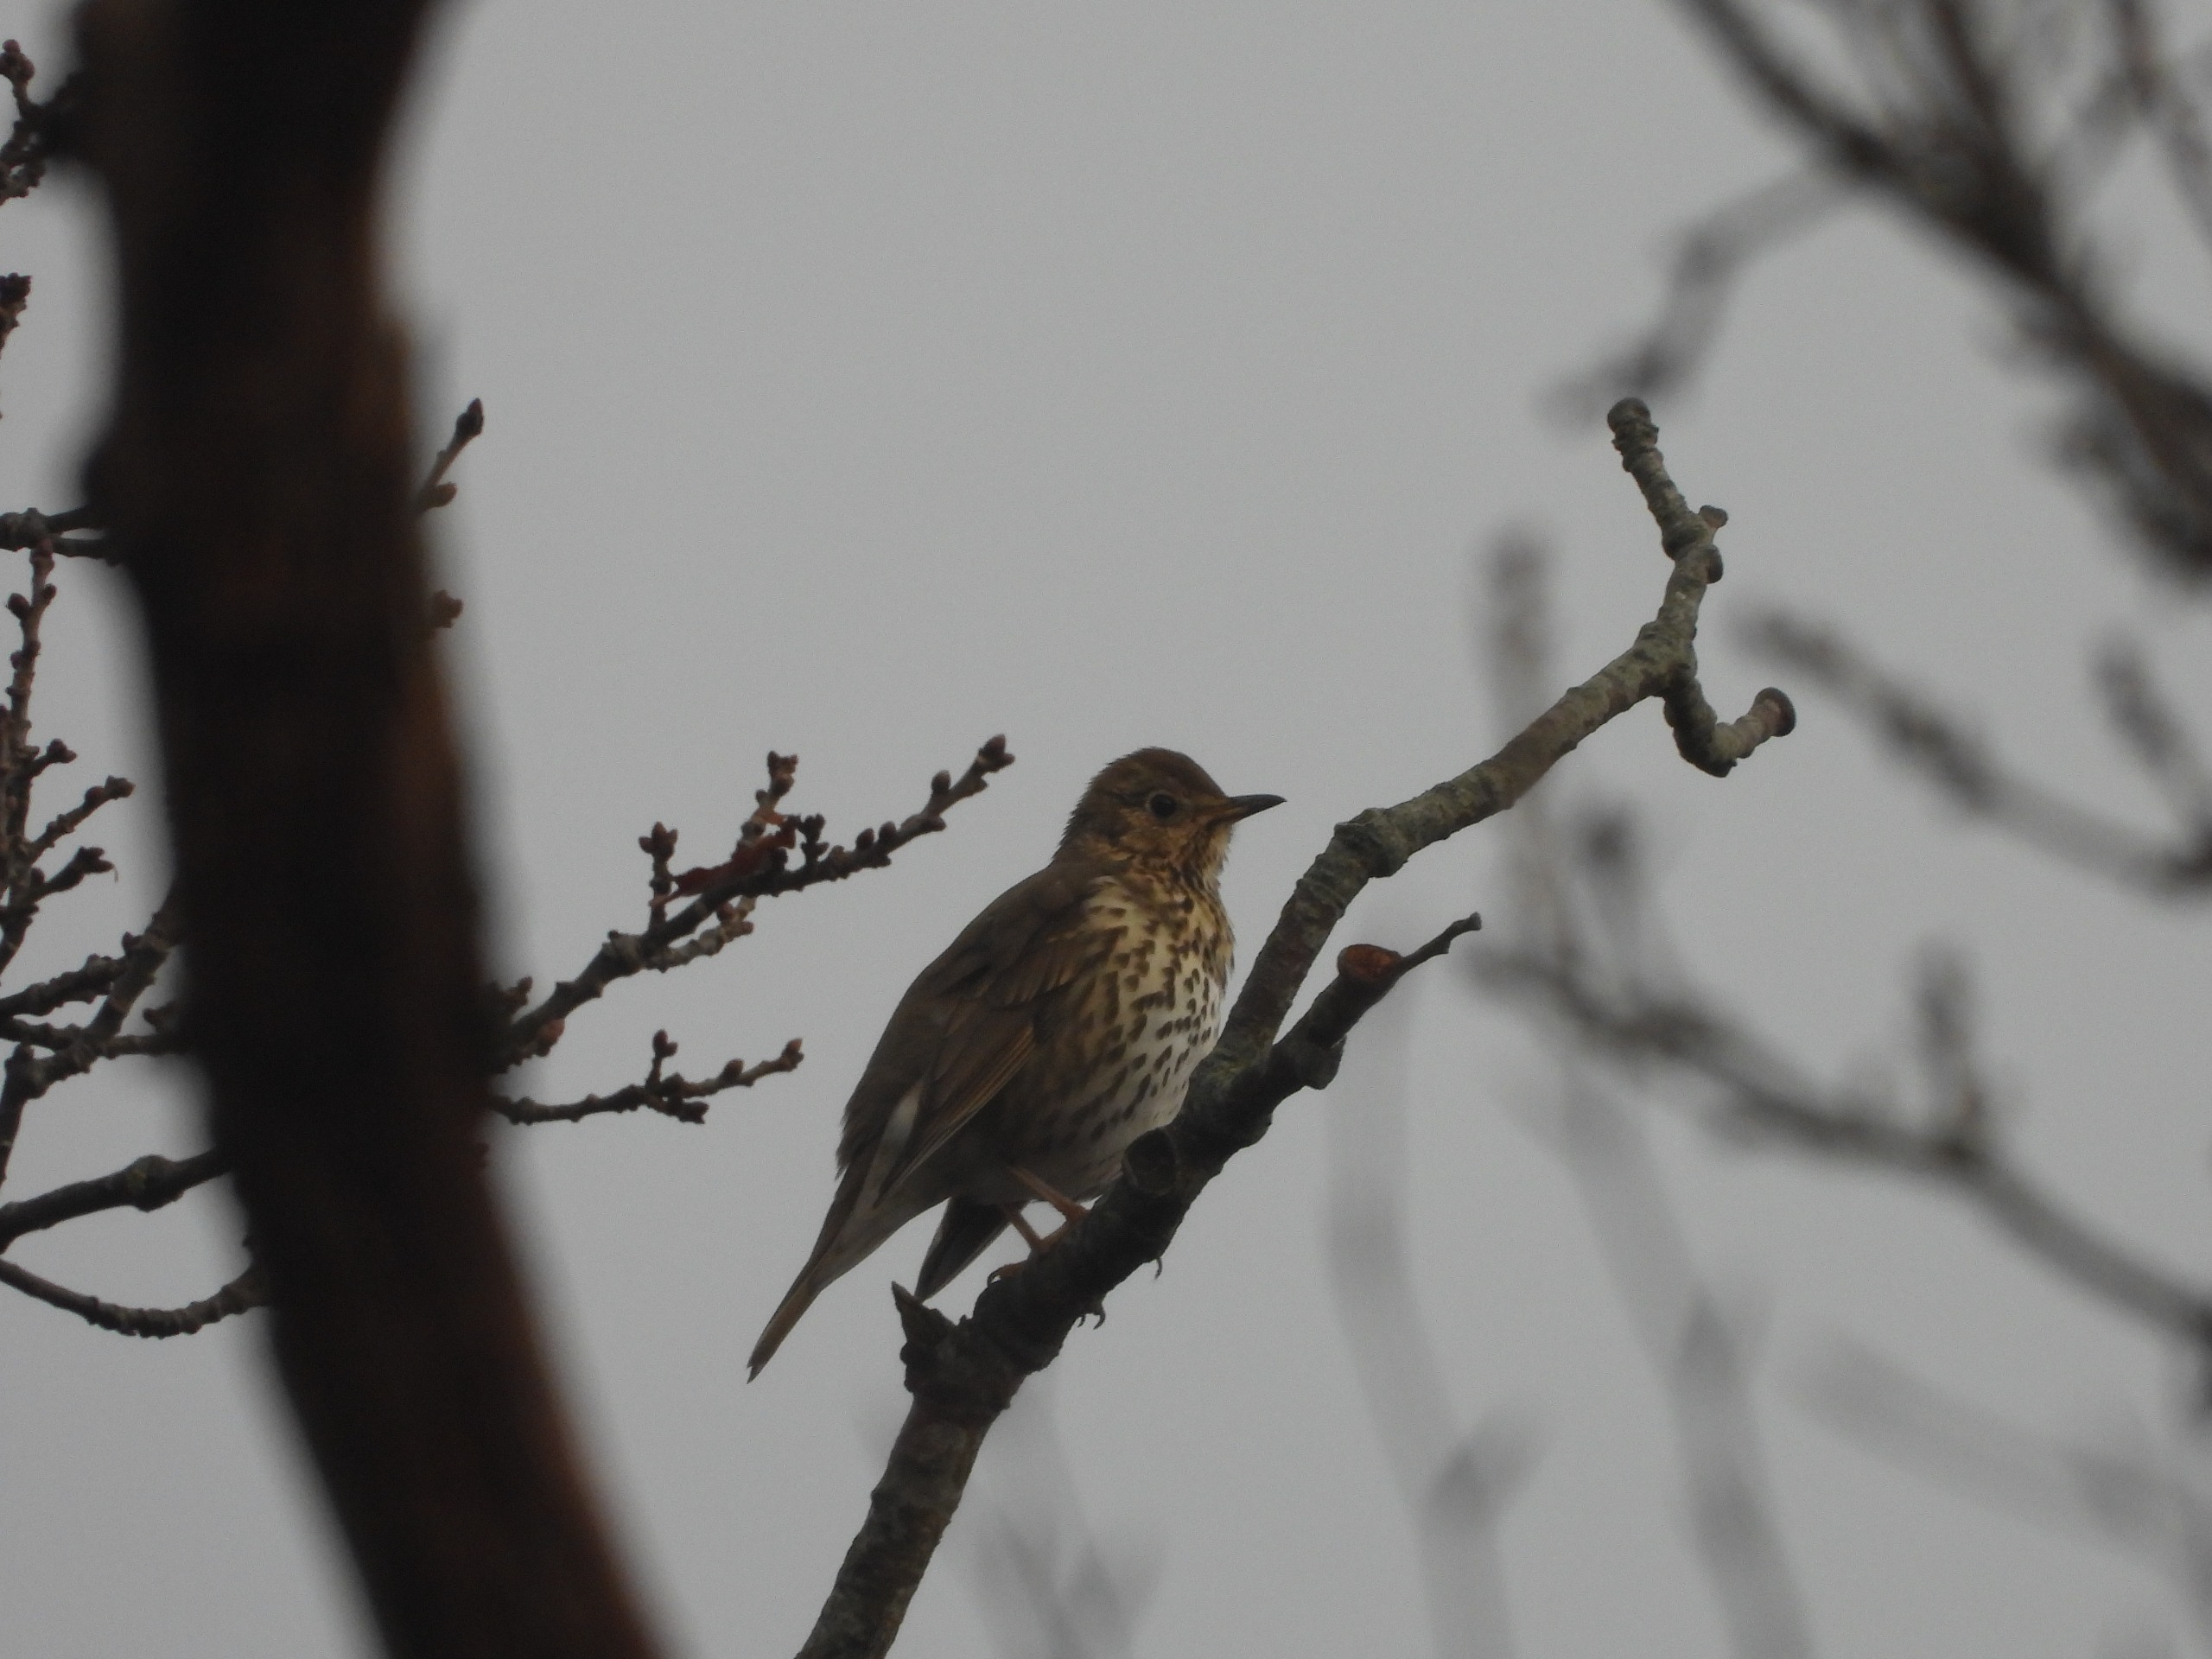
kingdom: Animalia
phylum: Chordata
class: Aves
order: Passeriformes
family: Turdidae
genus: Turdus
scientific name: Turdus philomelos
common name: Sangdrossel
